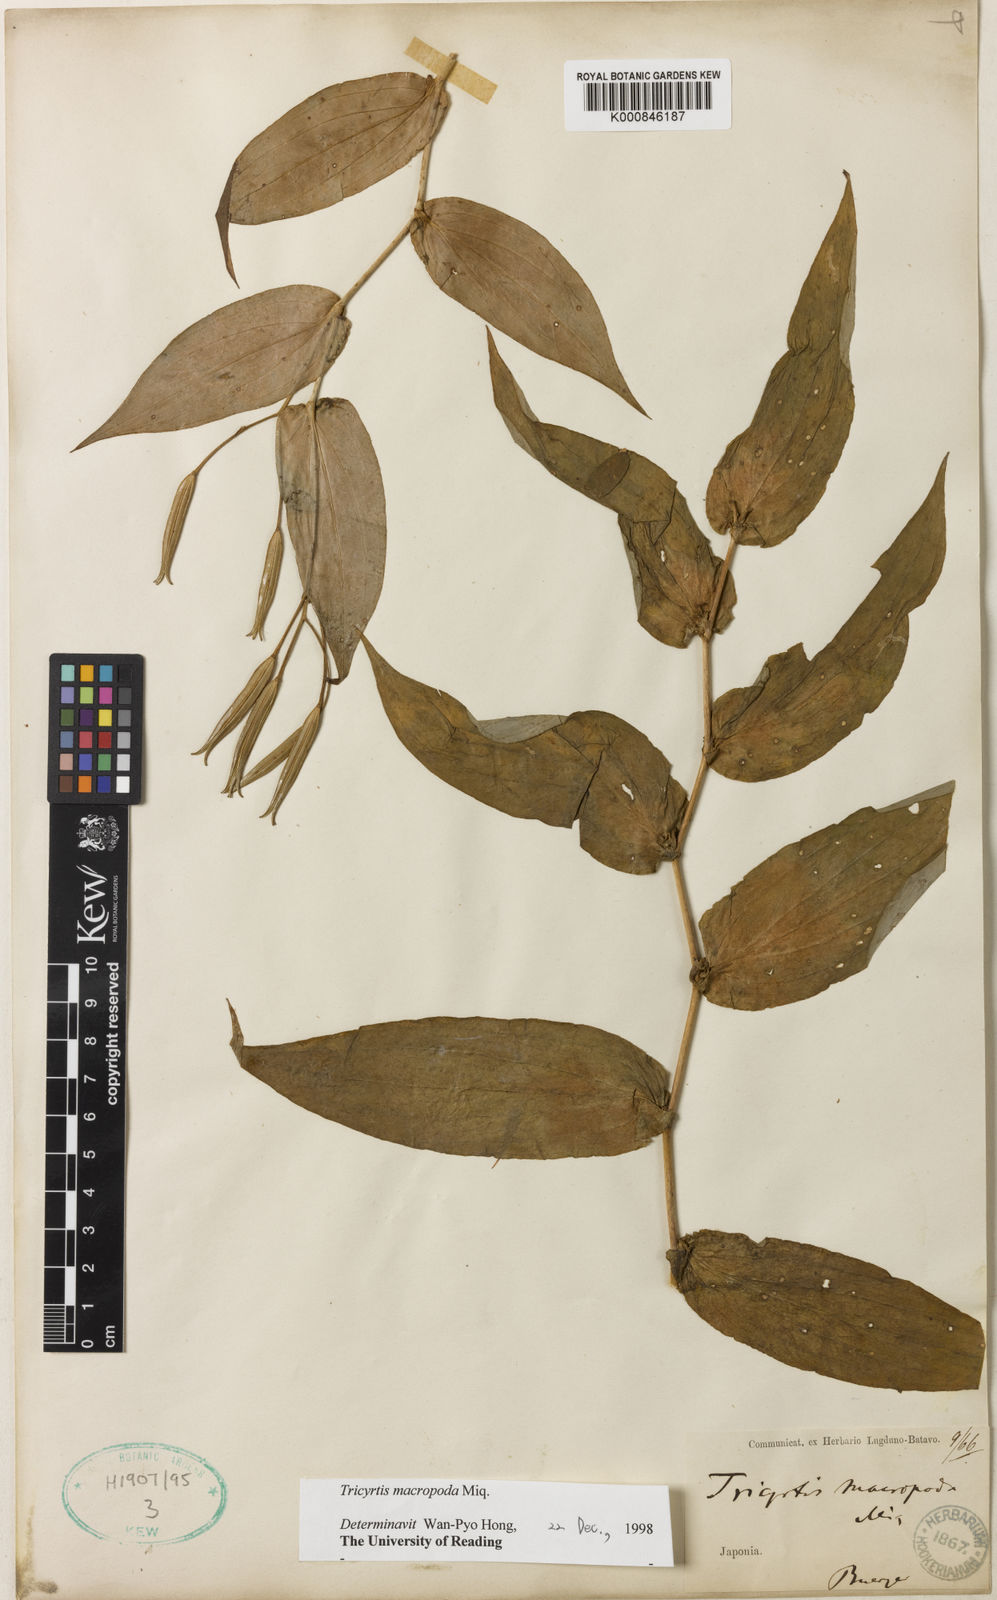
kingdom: Plantae
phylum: Tracheophyta
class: Liliopsida
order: Liliales
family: Liliaceae
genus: Tricyrtis
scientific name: Tricyrtis macropoda
